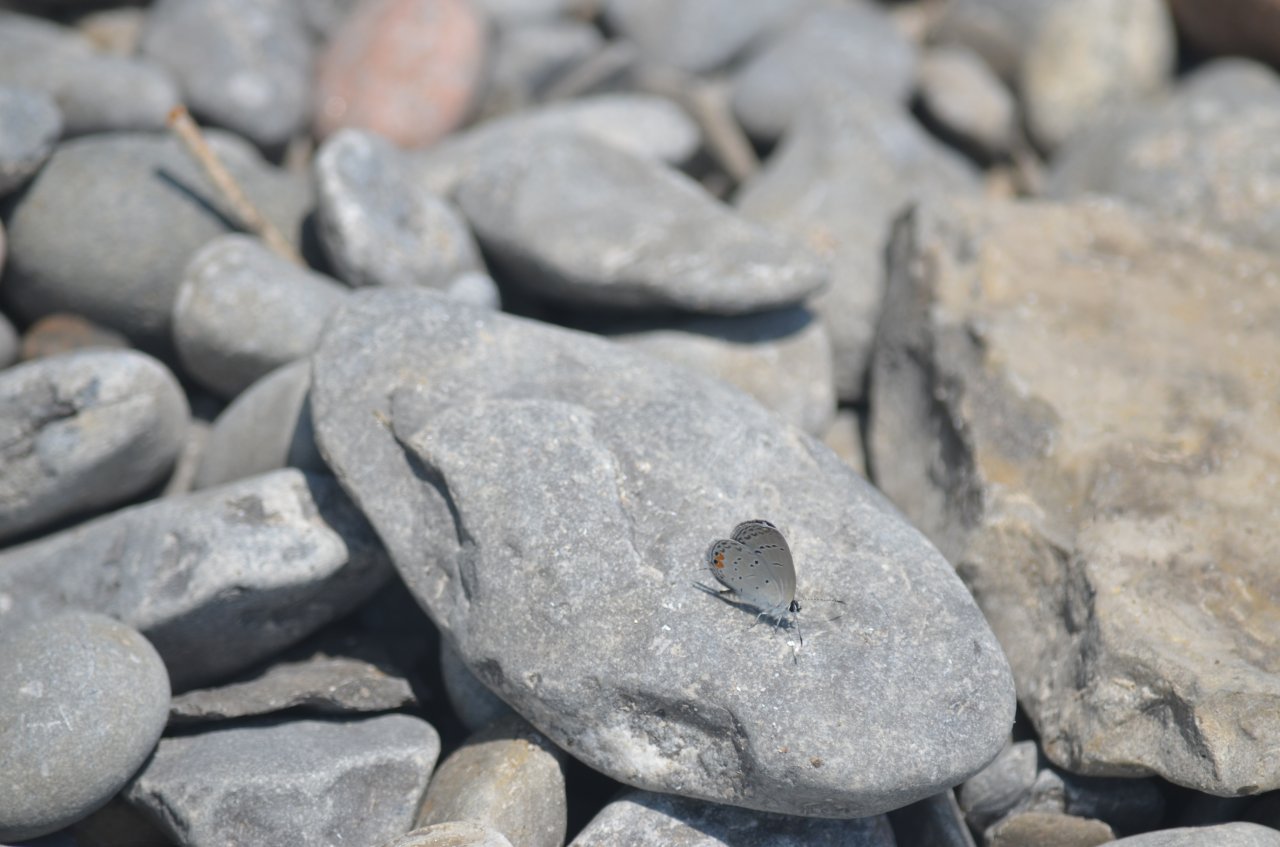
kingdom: Animalia
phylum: Arthropoda
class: Insecta
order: Lepidoptera
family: Lycaenidae
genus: Elkalyce
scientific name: Elkalyce comyntas
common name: Eastern Tailed-Blue
